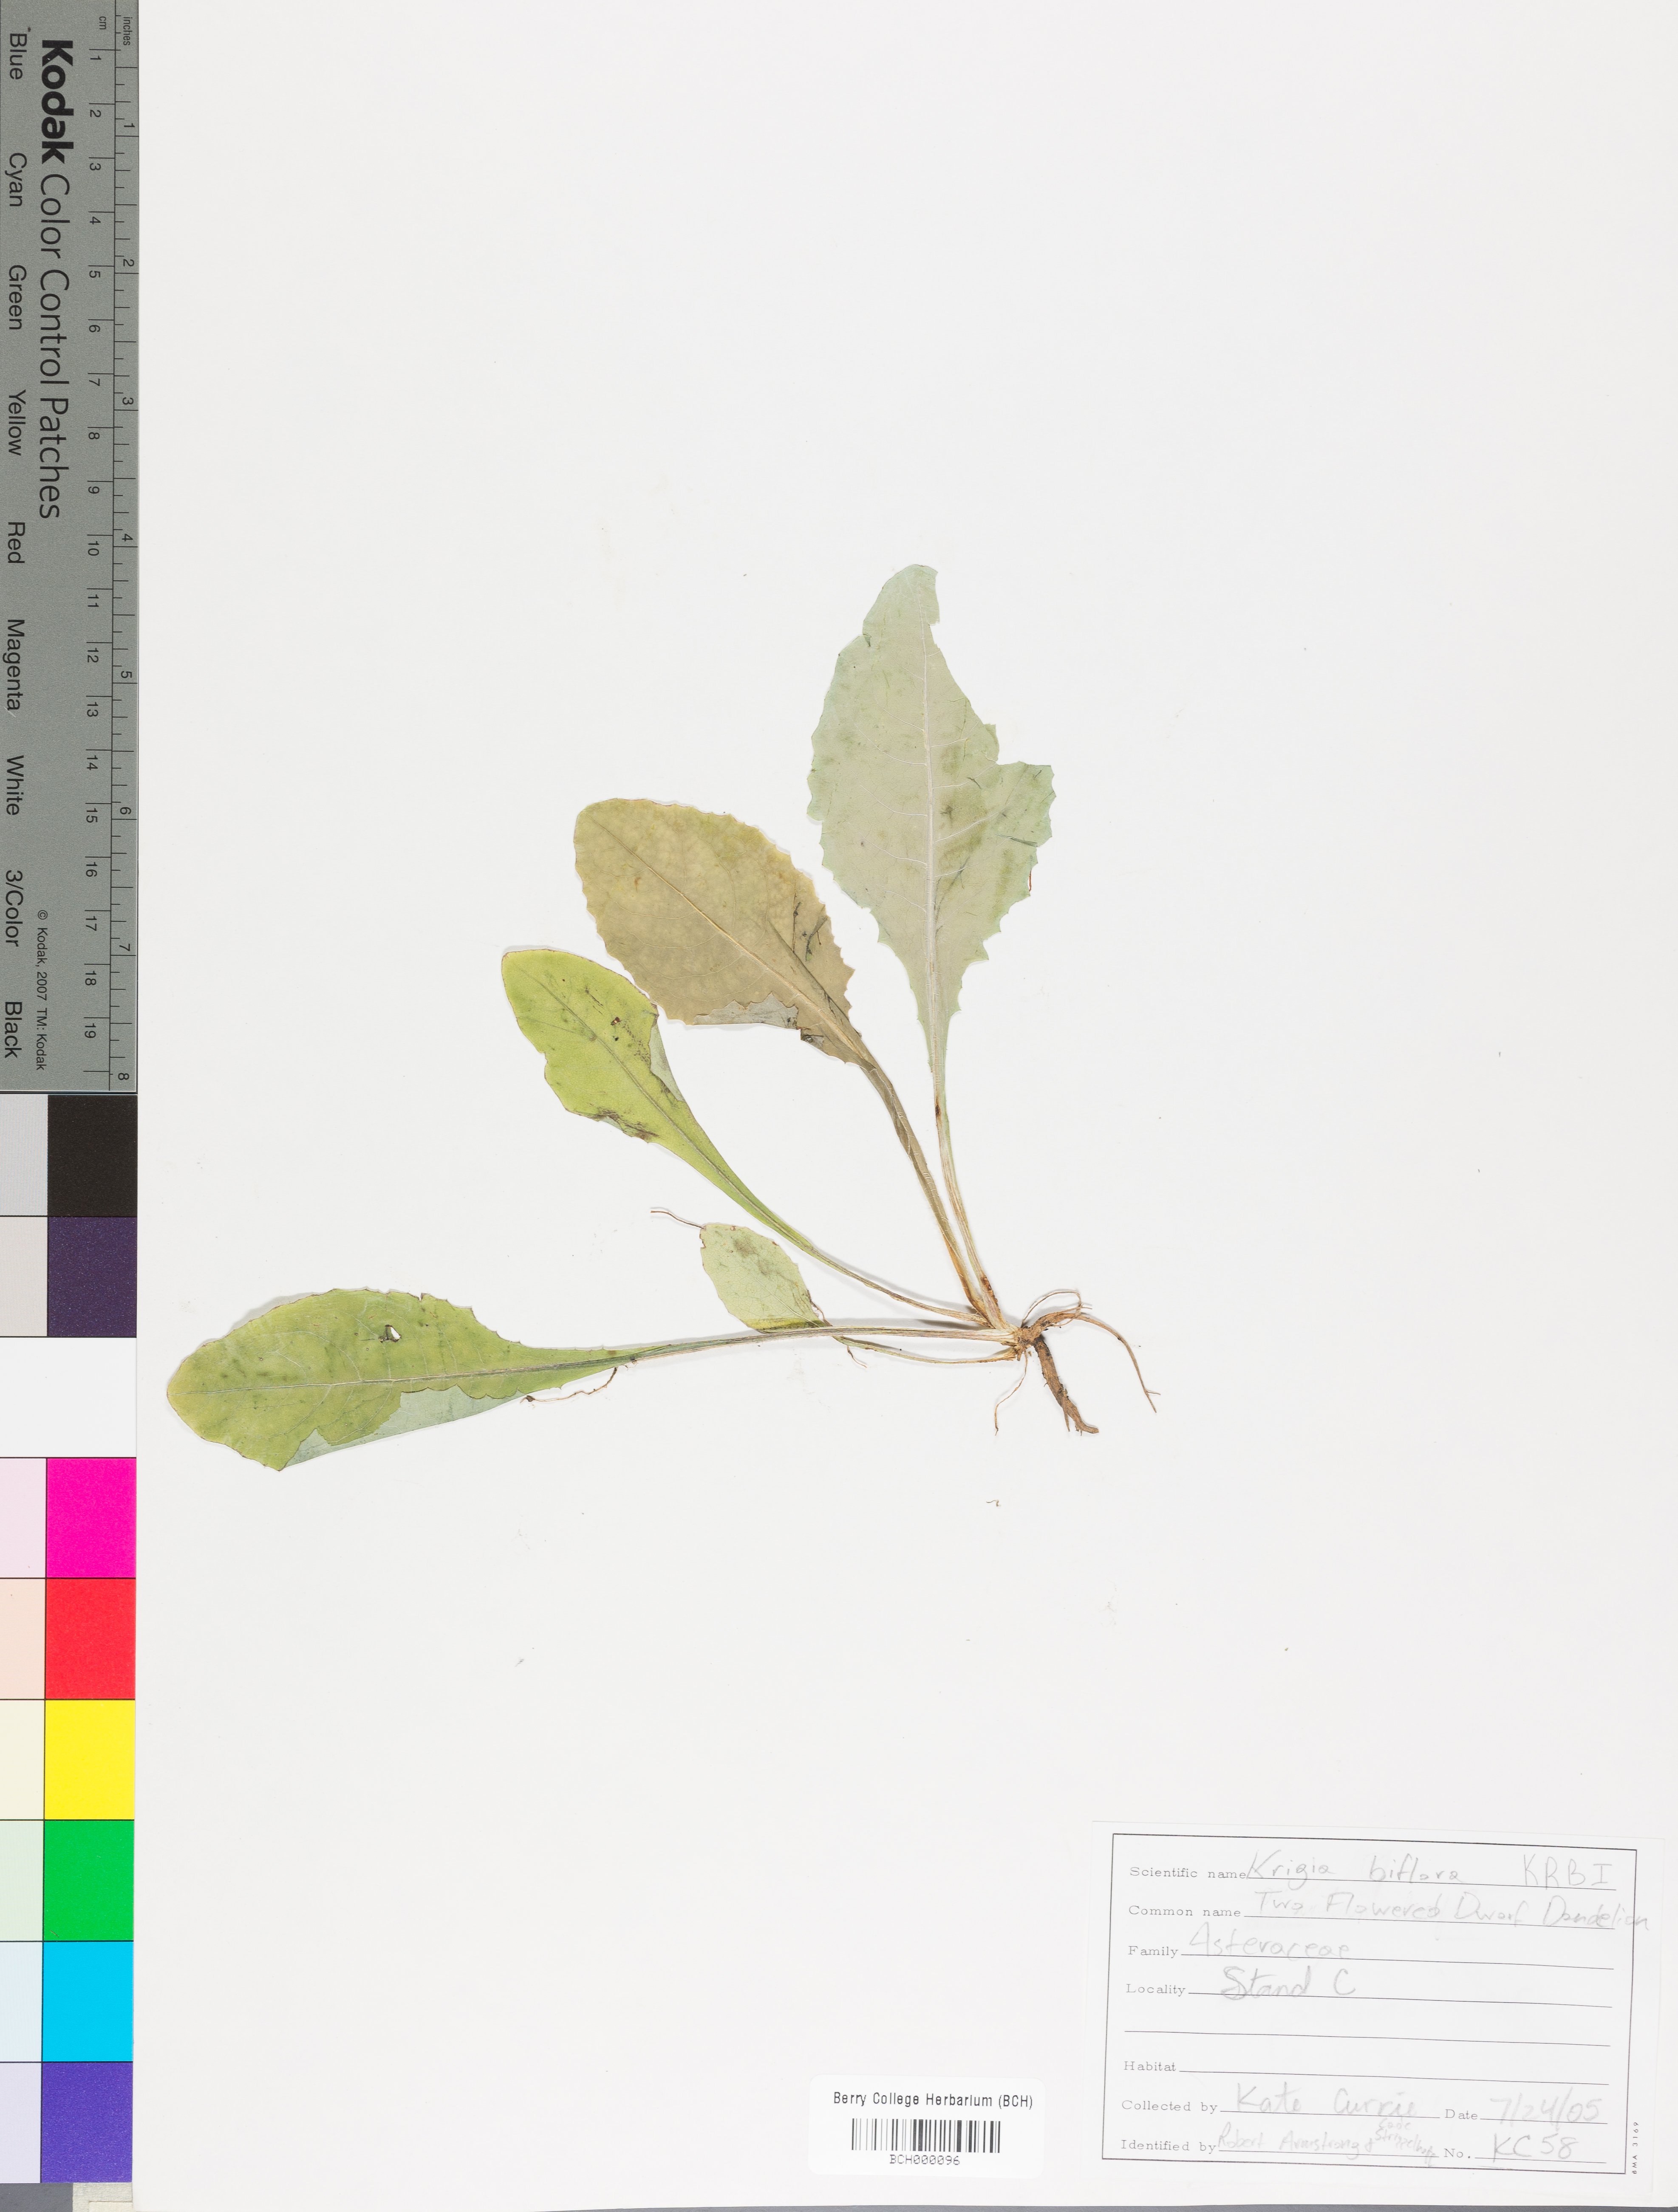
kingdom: Plantae
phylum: Tracheophyta
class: Magnoliopsida
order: Asterales
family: Asteraceae
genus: Krigia
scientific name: Krigia biflora
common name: Orange dwarf-dandelion
